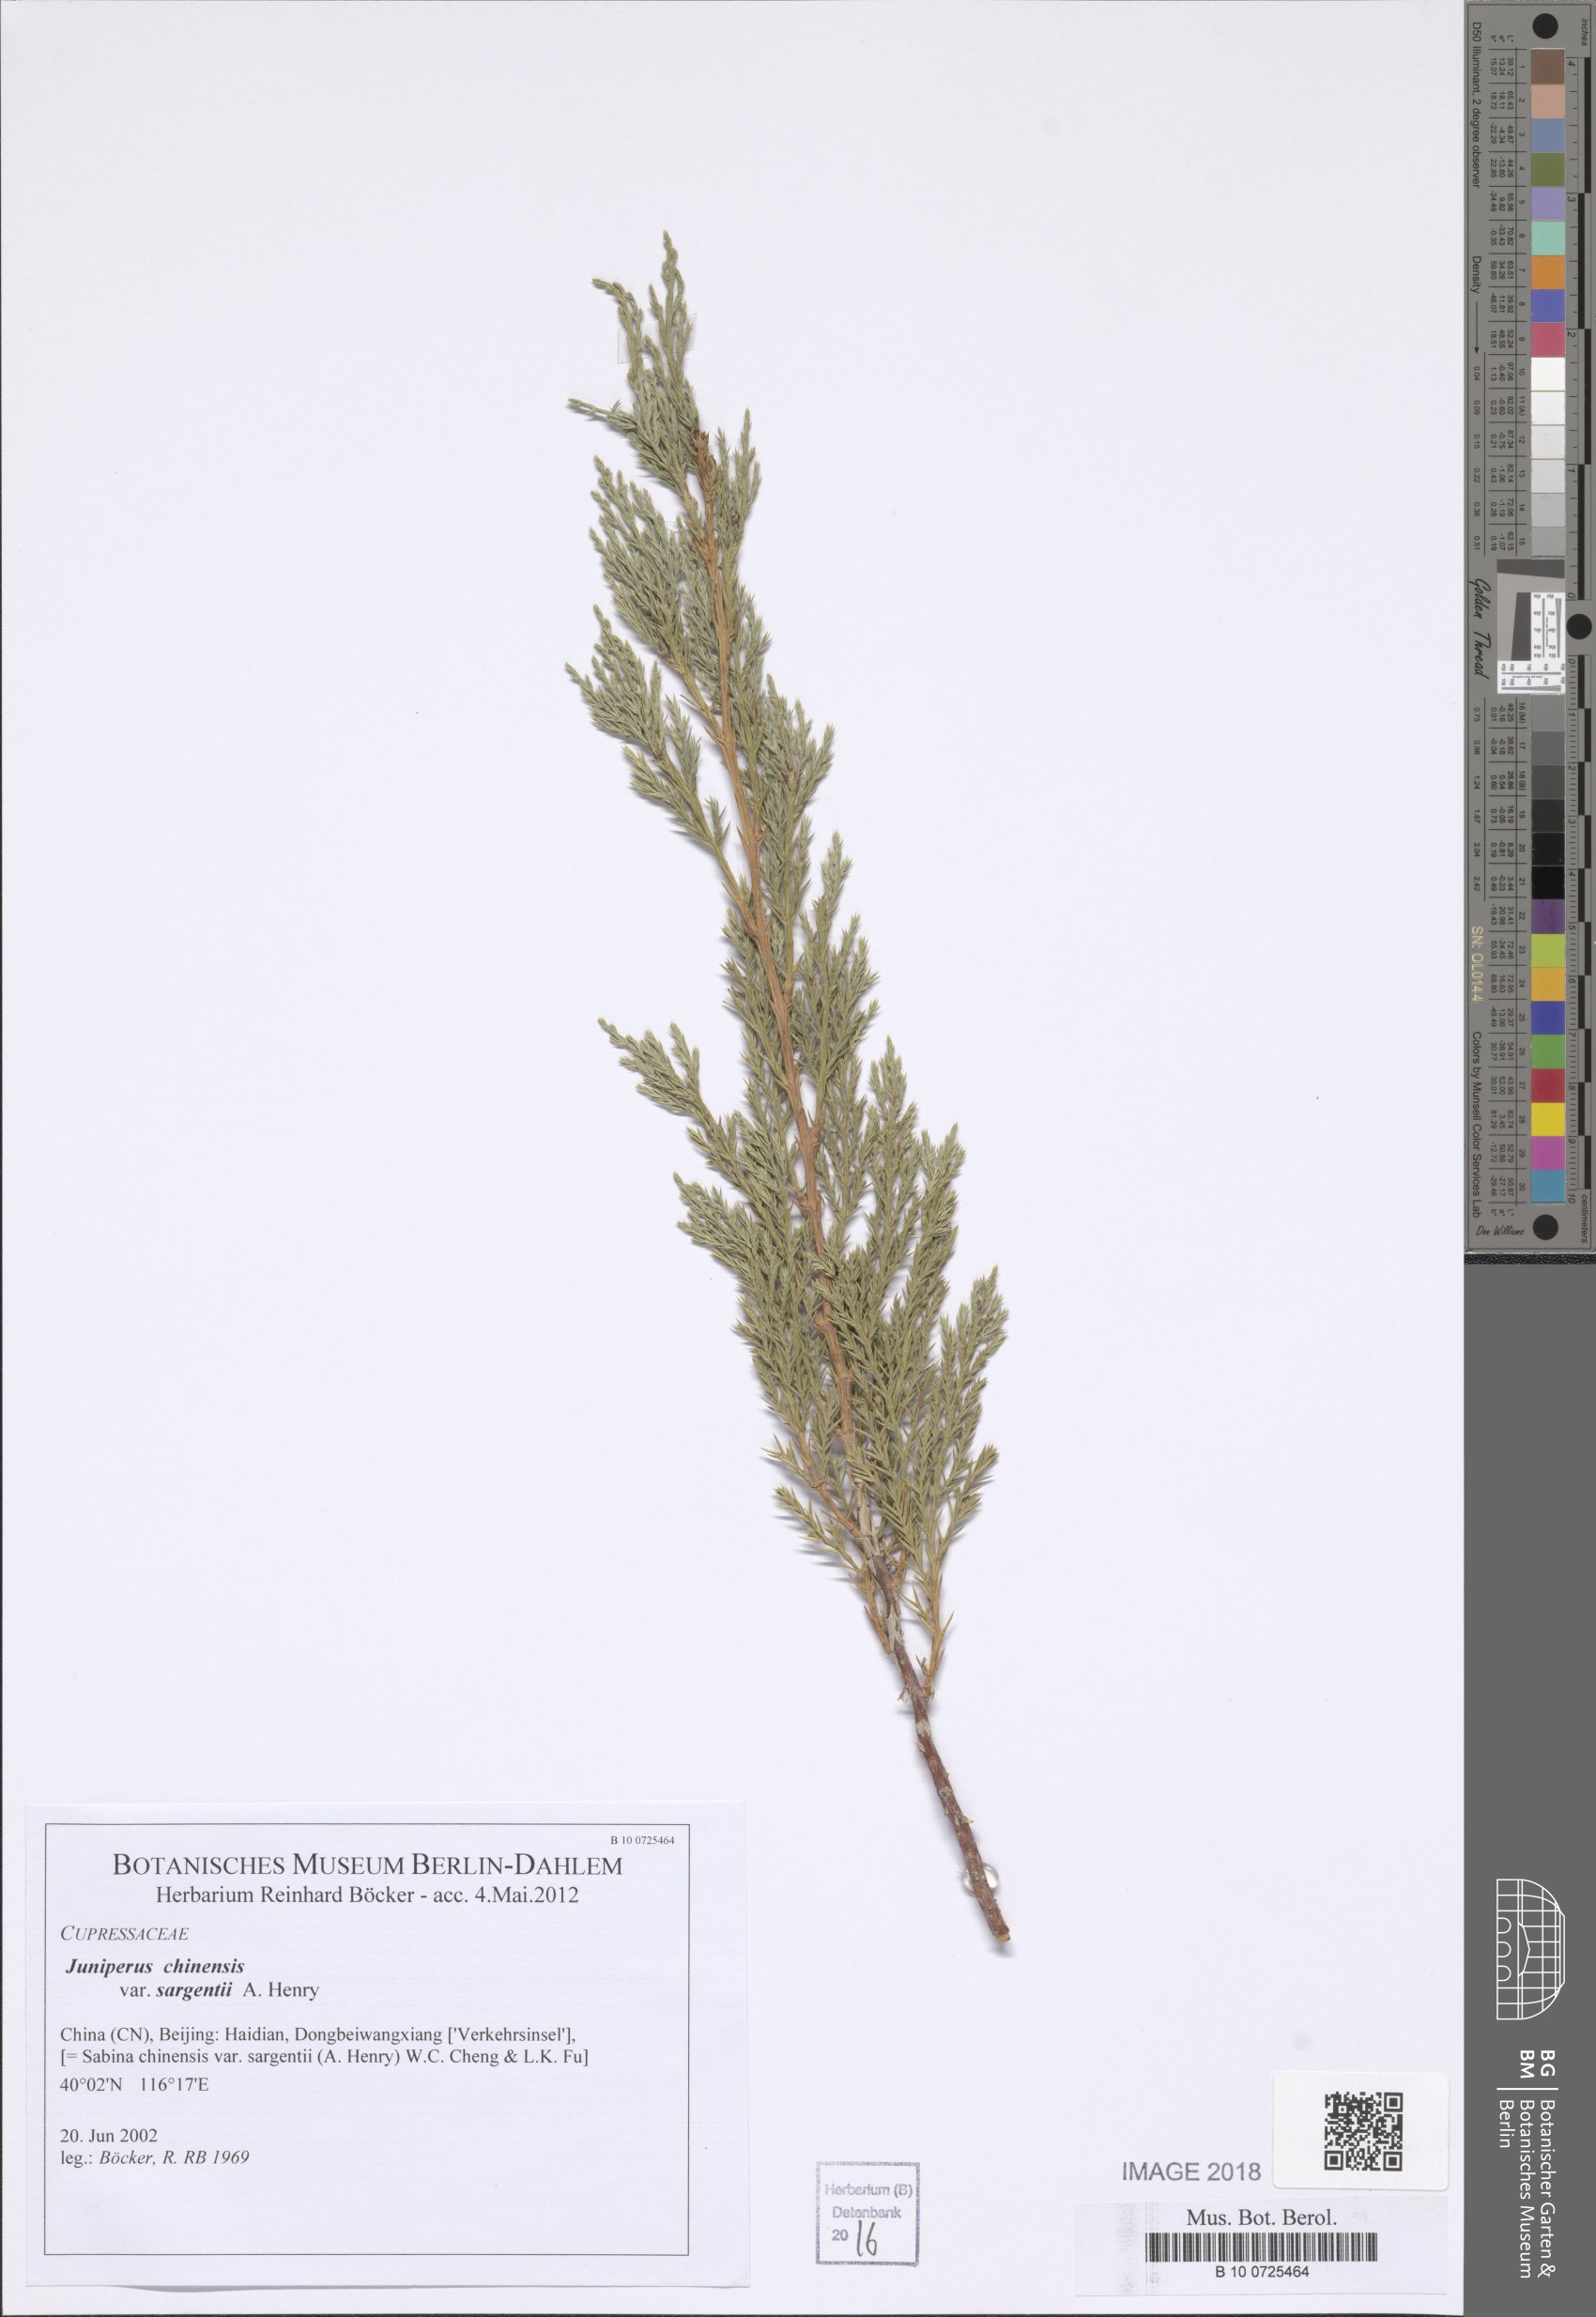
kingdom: Plantae
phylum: Tracheophyta
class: Pinopsida
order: Pinales
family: Cupressaceae
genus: Juniperus
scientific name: Juniperus chinensis
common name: Chinese juniper
